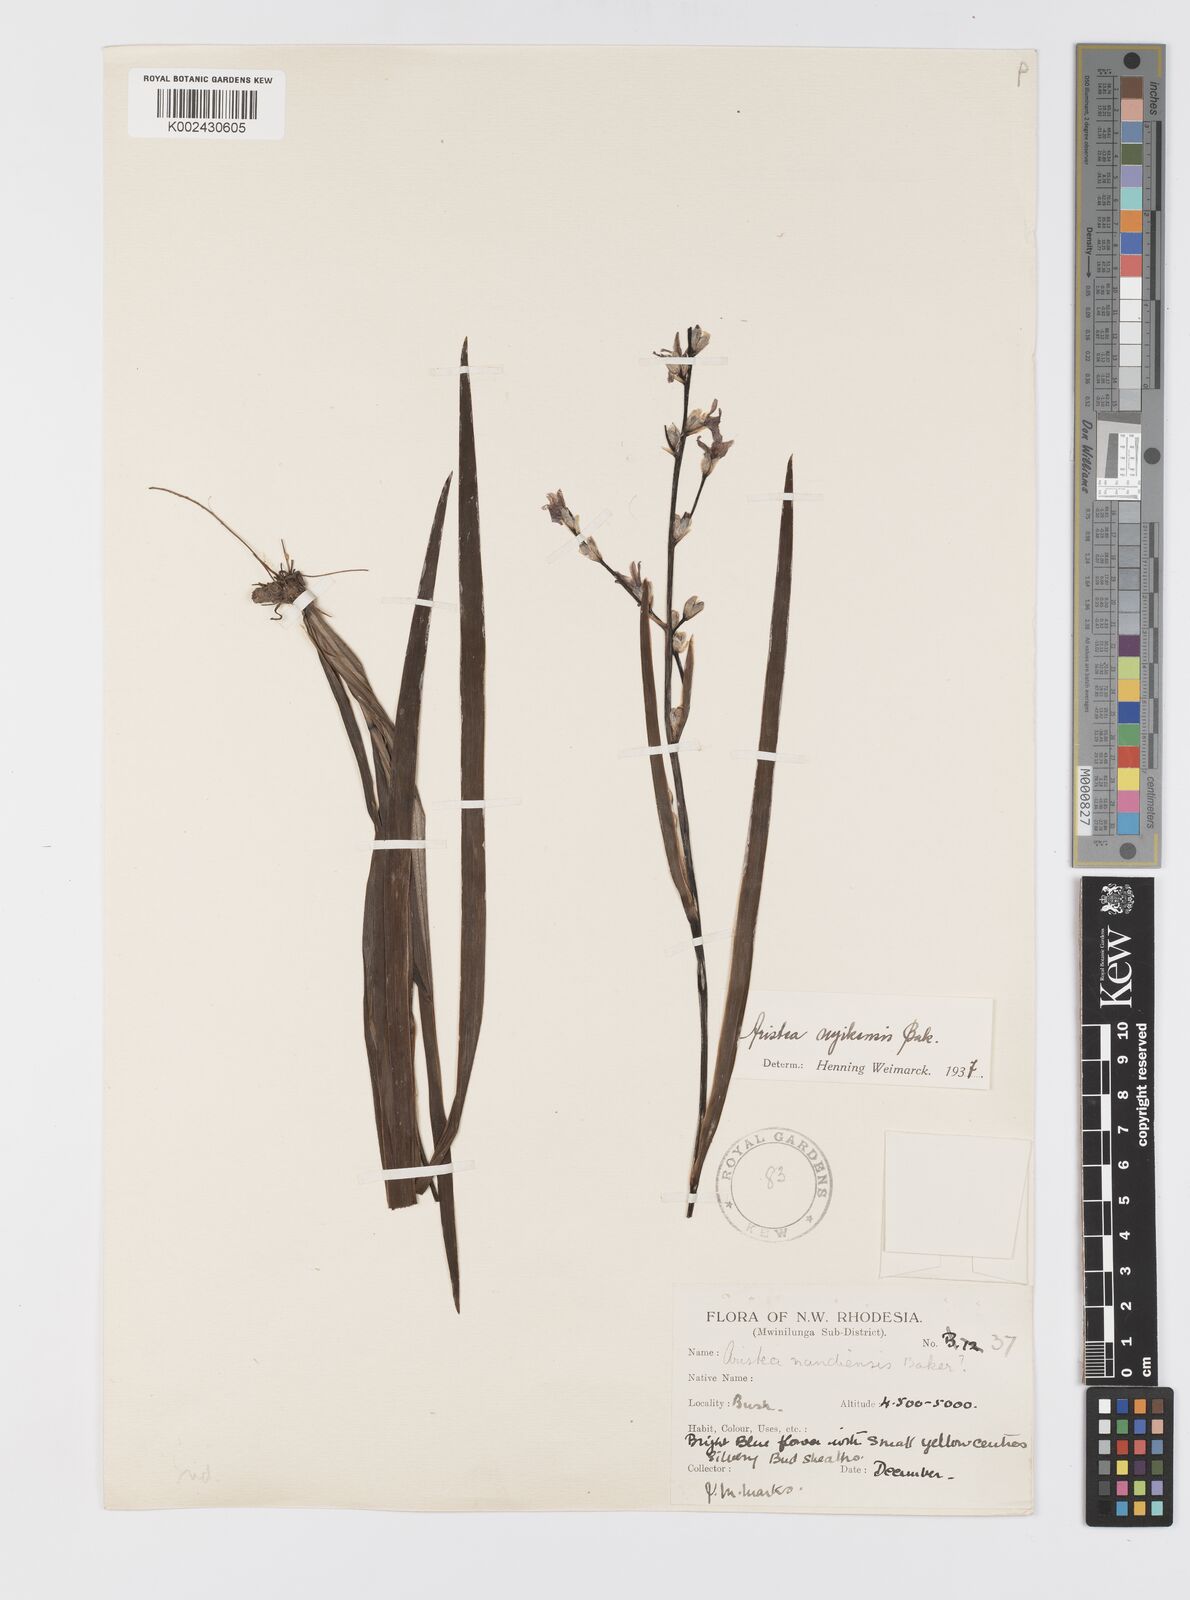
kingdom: Plantae
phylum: Tracheophyta
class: Liliopsida
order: Asparagales
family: Iridaceae
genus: Aristea
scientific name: Aristea nyikensis
